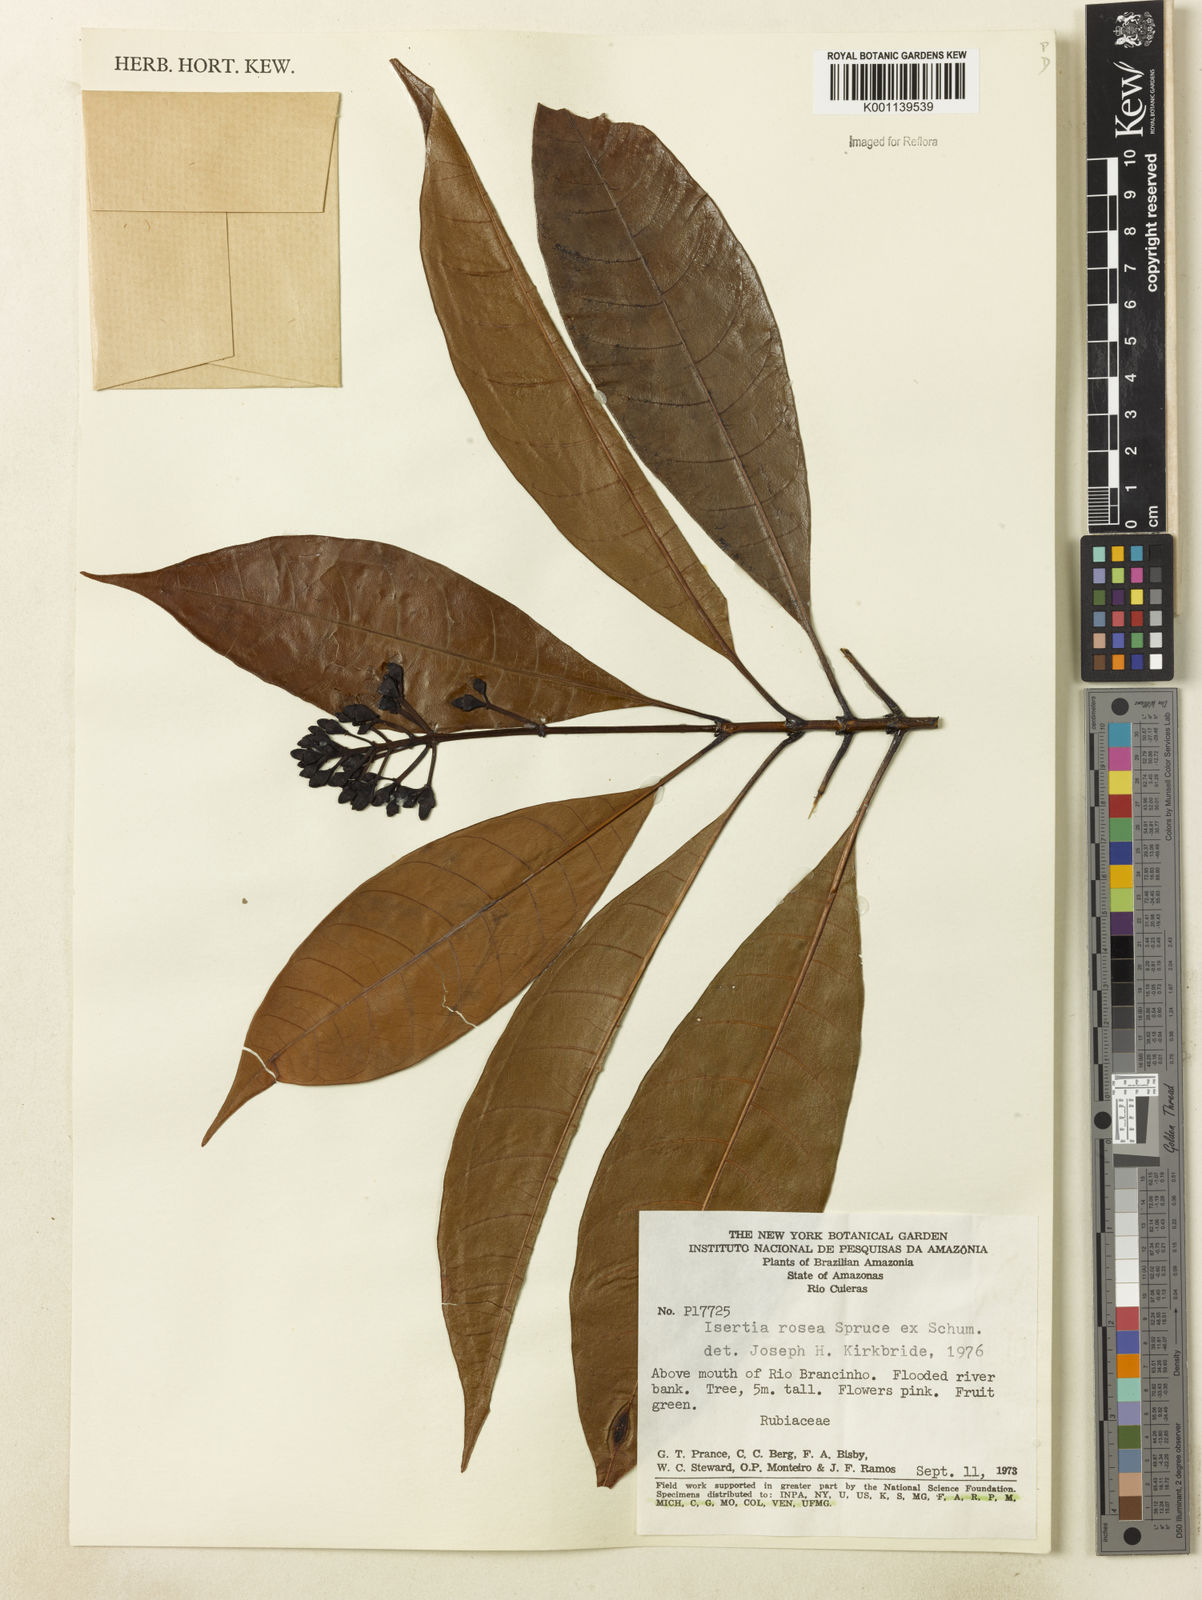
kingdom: Plantae
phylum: Tracheophyta
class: Magnoliopsida
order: Gentianales
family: Rubiaceae
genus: Isertia
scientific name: Isertia rosea
